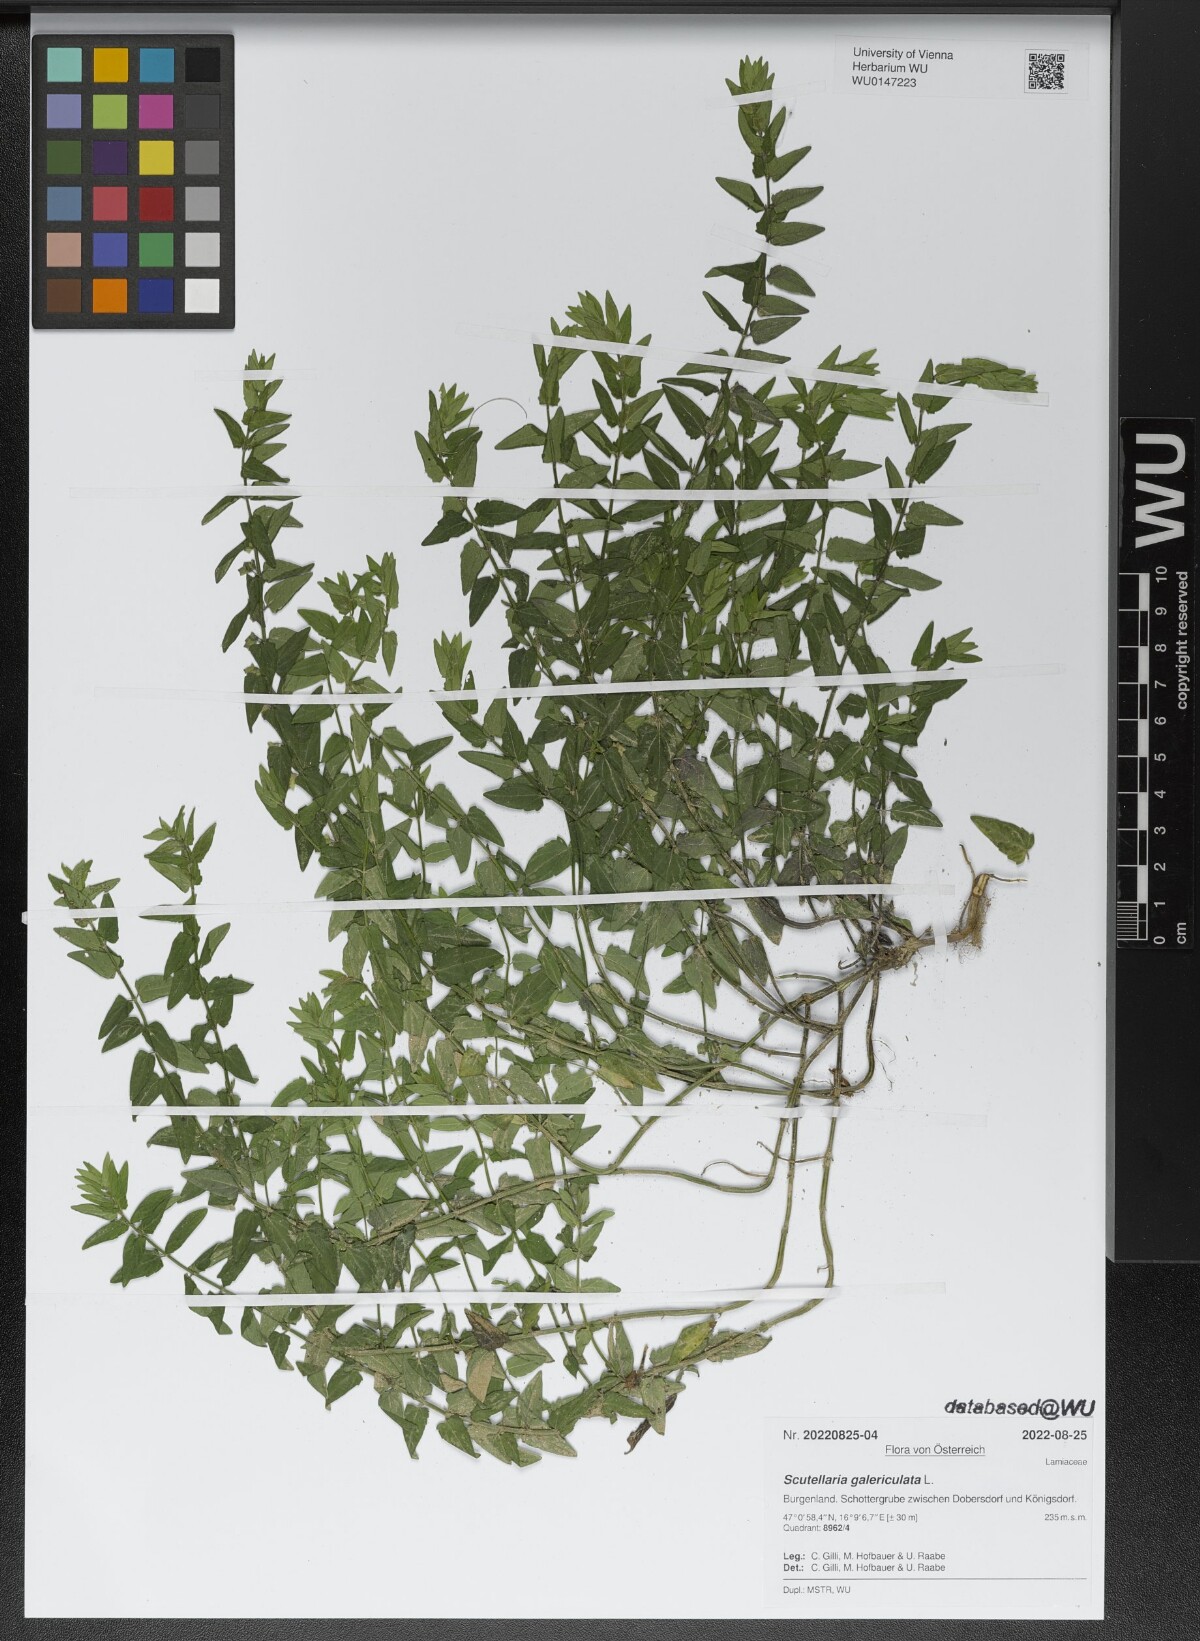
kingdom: Plantae
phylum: Tracheophyta
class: Magnoliopsida
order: Lamiales
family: Lamiaceae
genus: Scutellaria
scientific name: Scutellaria galericulata
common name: Skullcap
